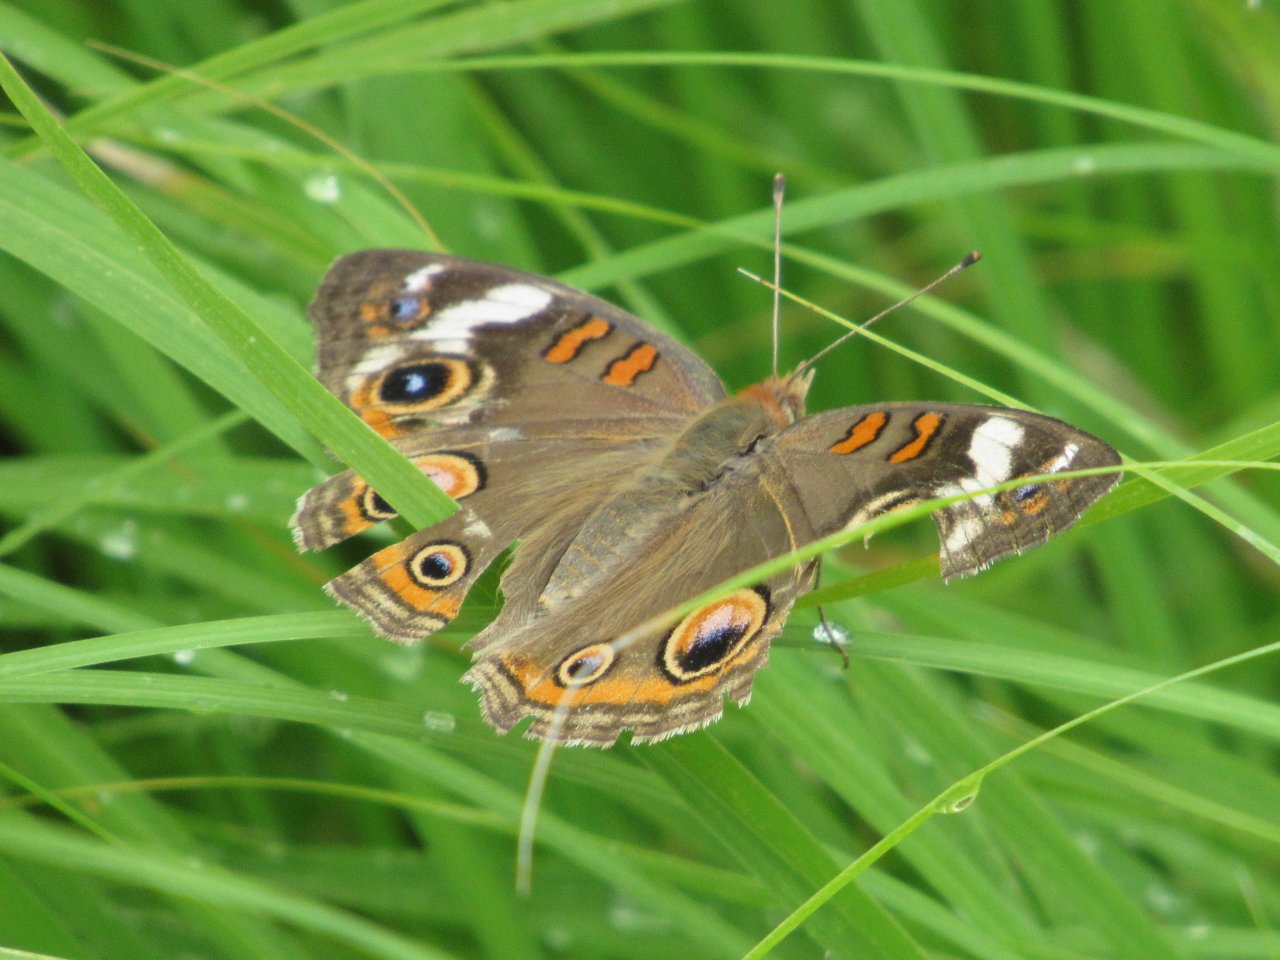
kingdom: Animalia
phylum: Arthropoda
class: Insecta
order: Lepidoptera
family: Nymphalidae
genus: Junonia
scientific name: Junonia coenia
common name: Common Buckeye
